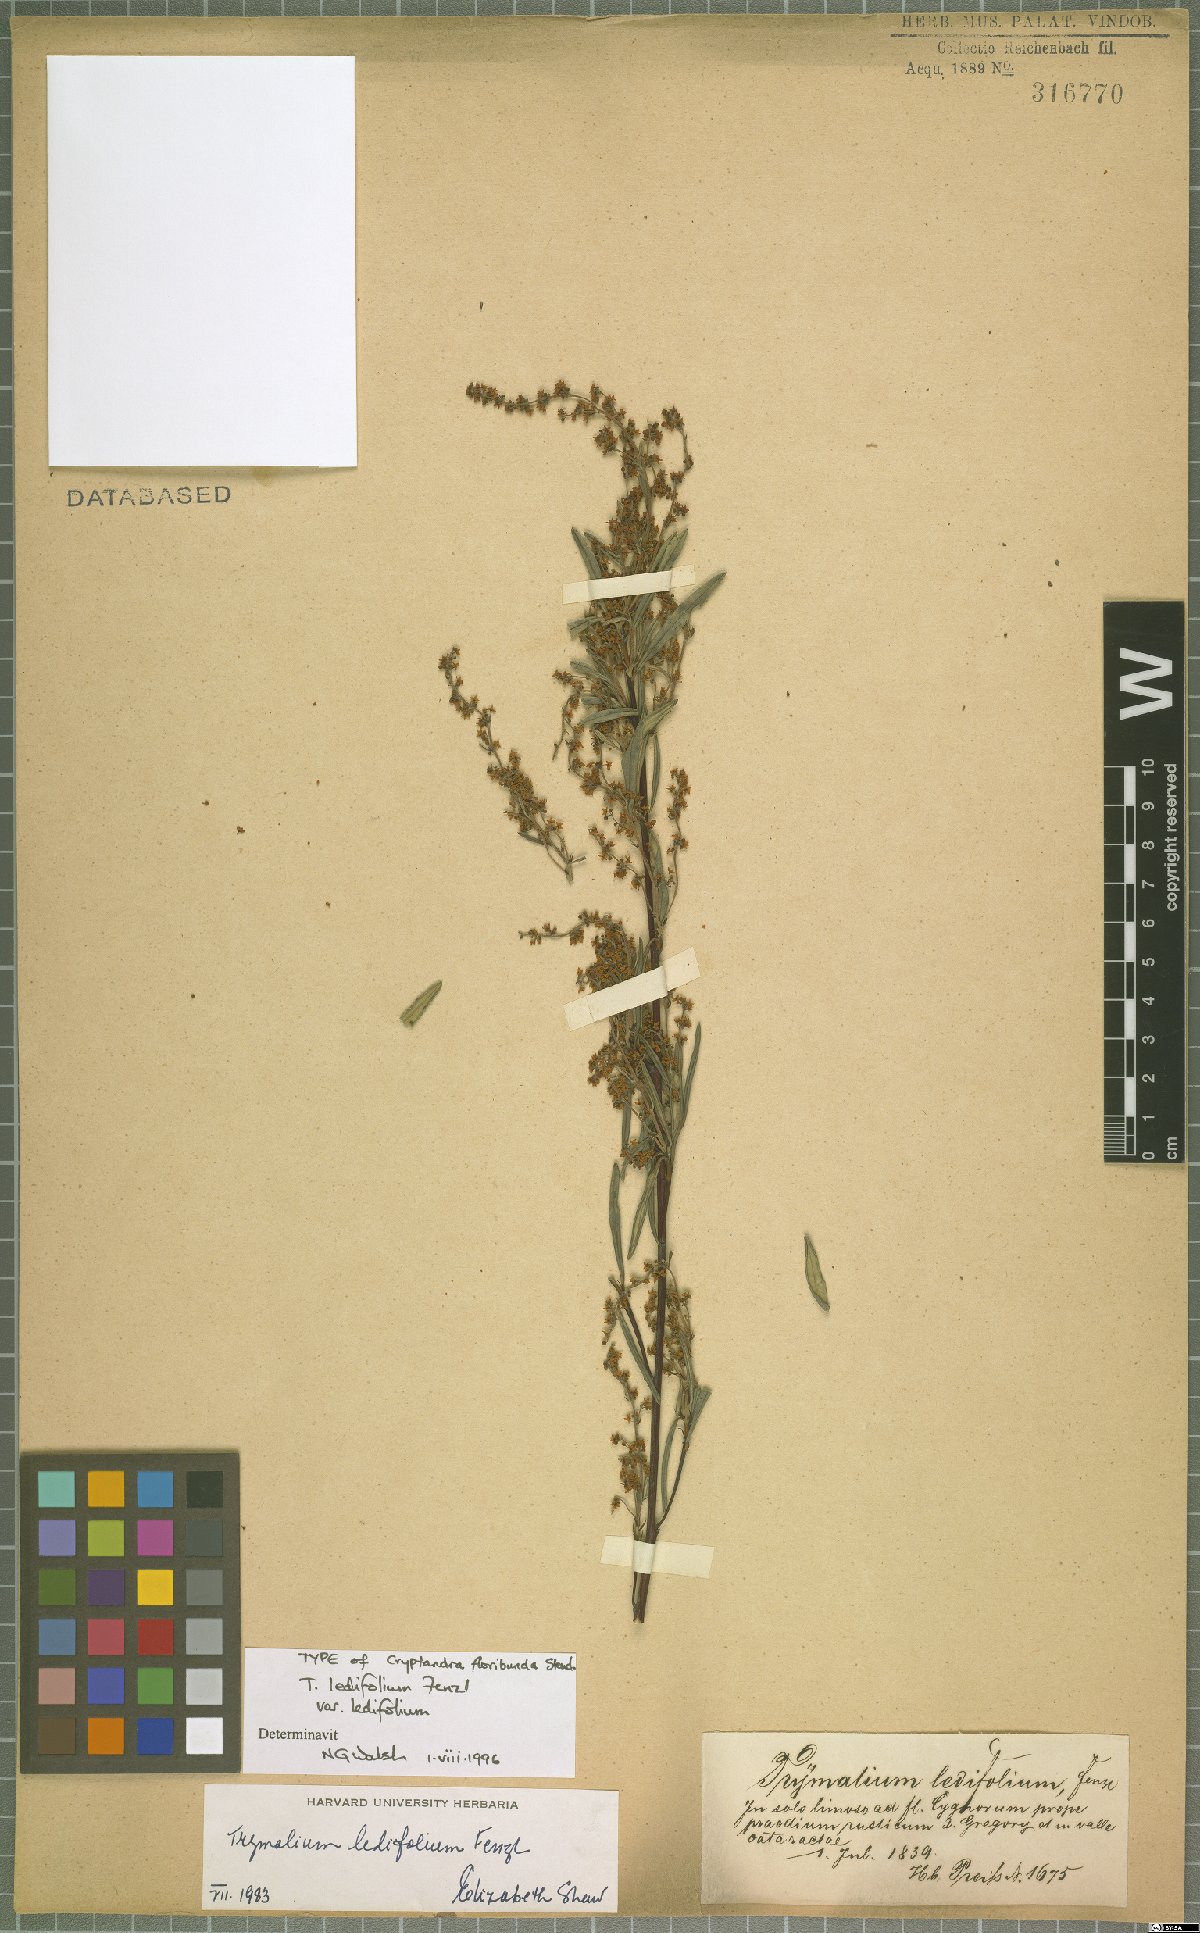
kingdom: Plantae
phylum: Tracheophyta
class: Magnoliopsida
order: Rosales
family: Rhamnaceae
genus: Trymalium
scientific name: Trymalium ledifolium
